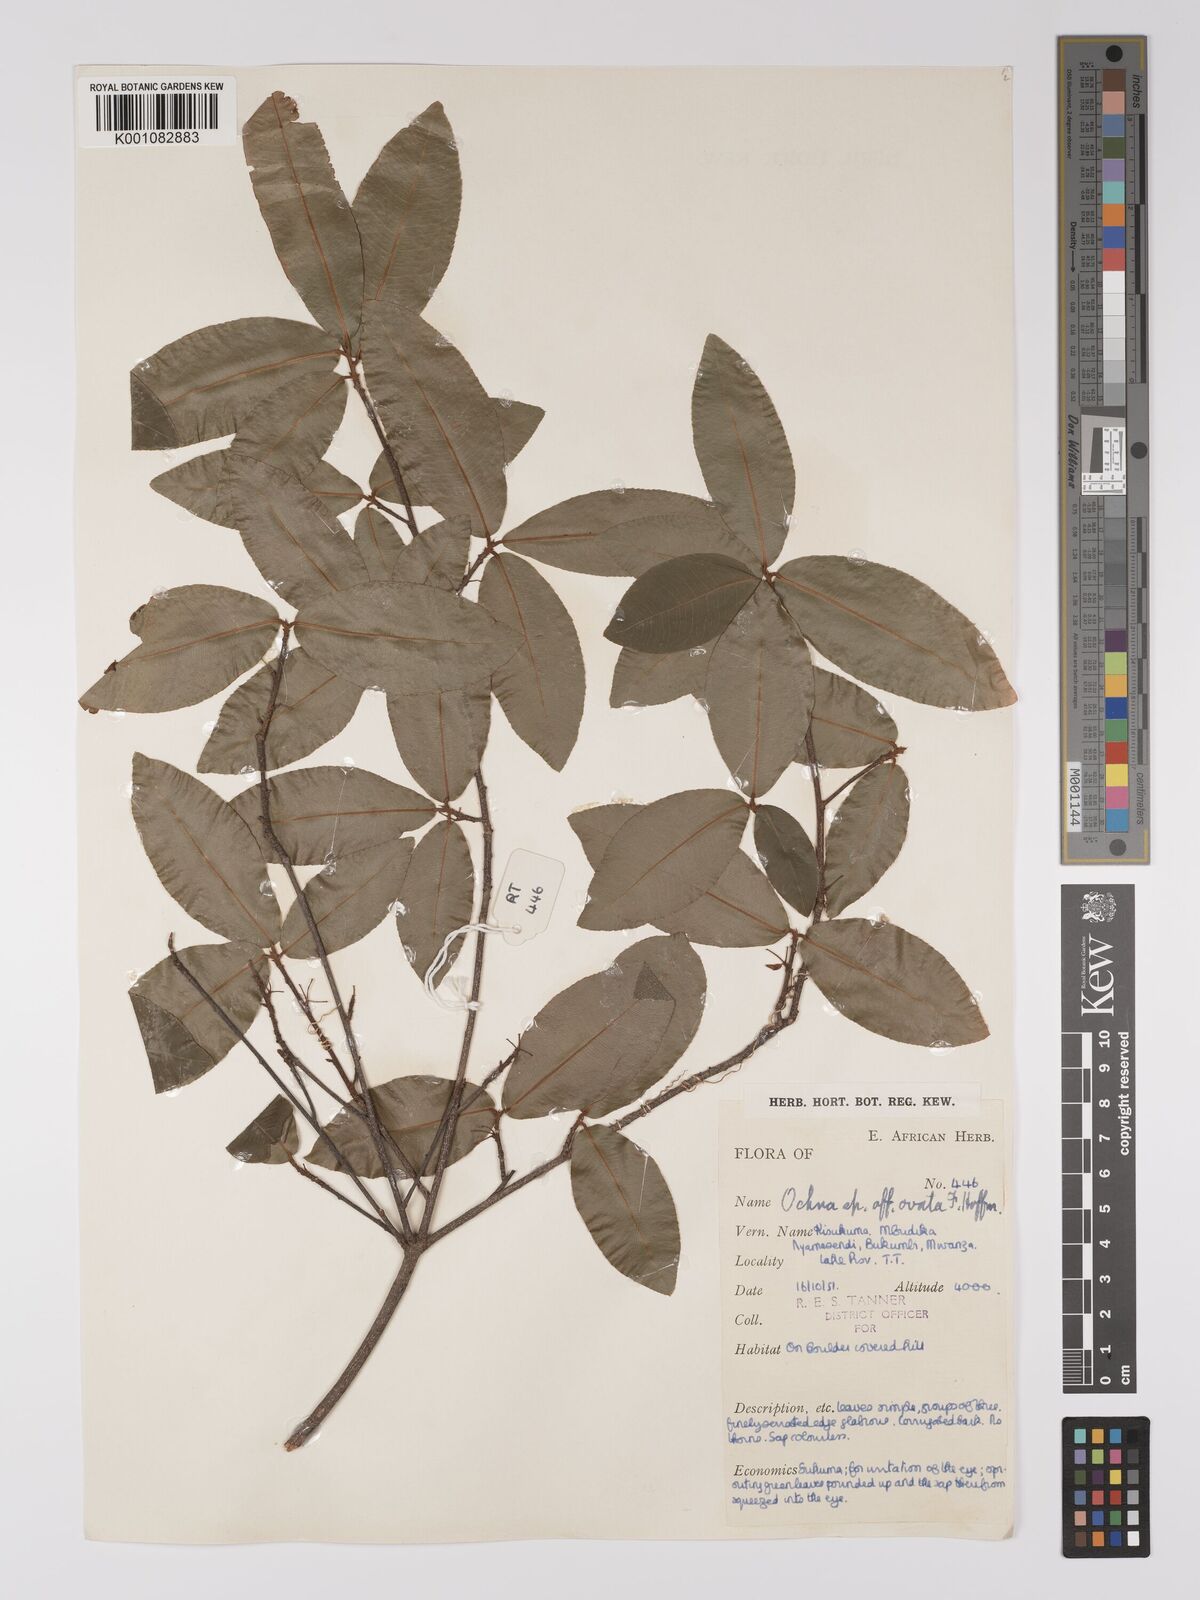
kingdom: Plantae
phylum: Tracheophyta
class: Magnoliopsida
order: Malpighiales
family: Ochnaceae
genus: Ochna
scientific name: Ochna ovata
